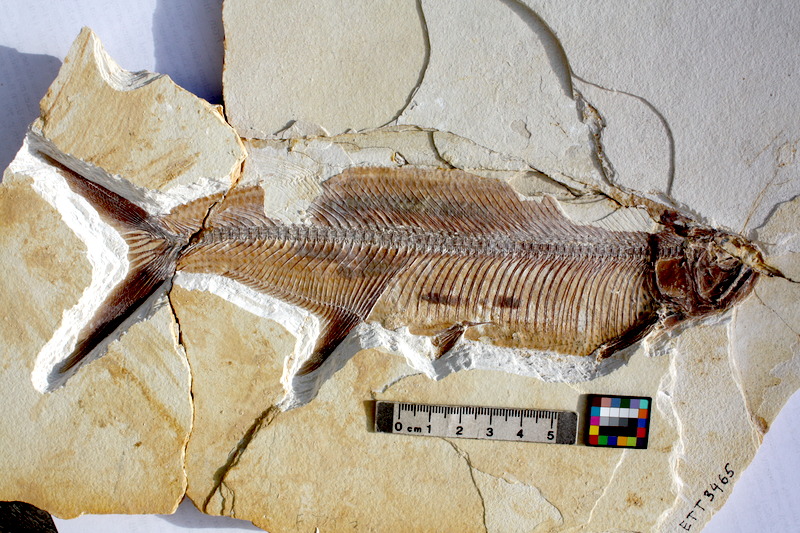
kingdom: Animalia
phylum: Chordata
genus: Thrissops
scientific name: Thrissops subovatus
